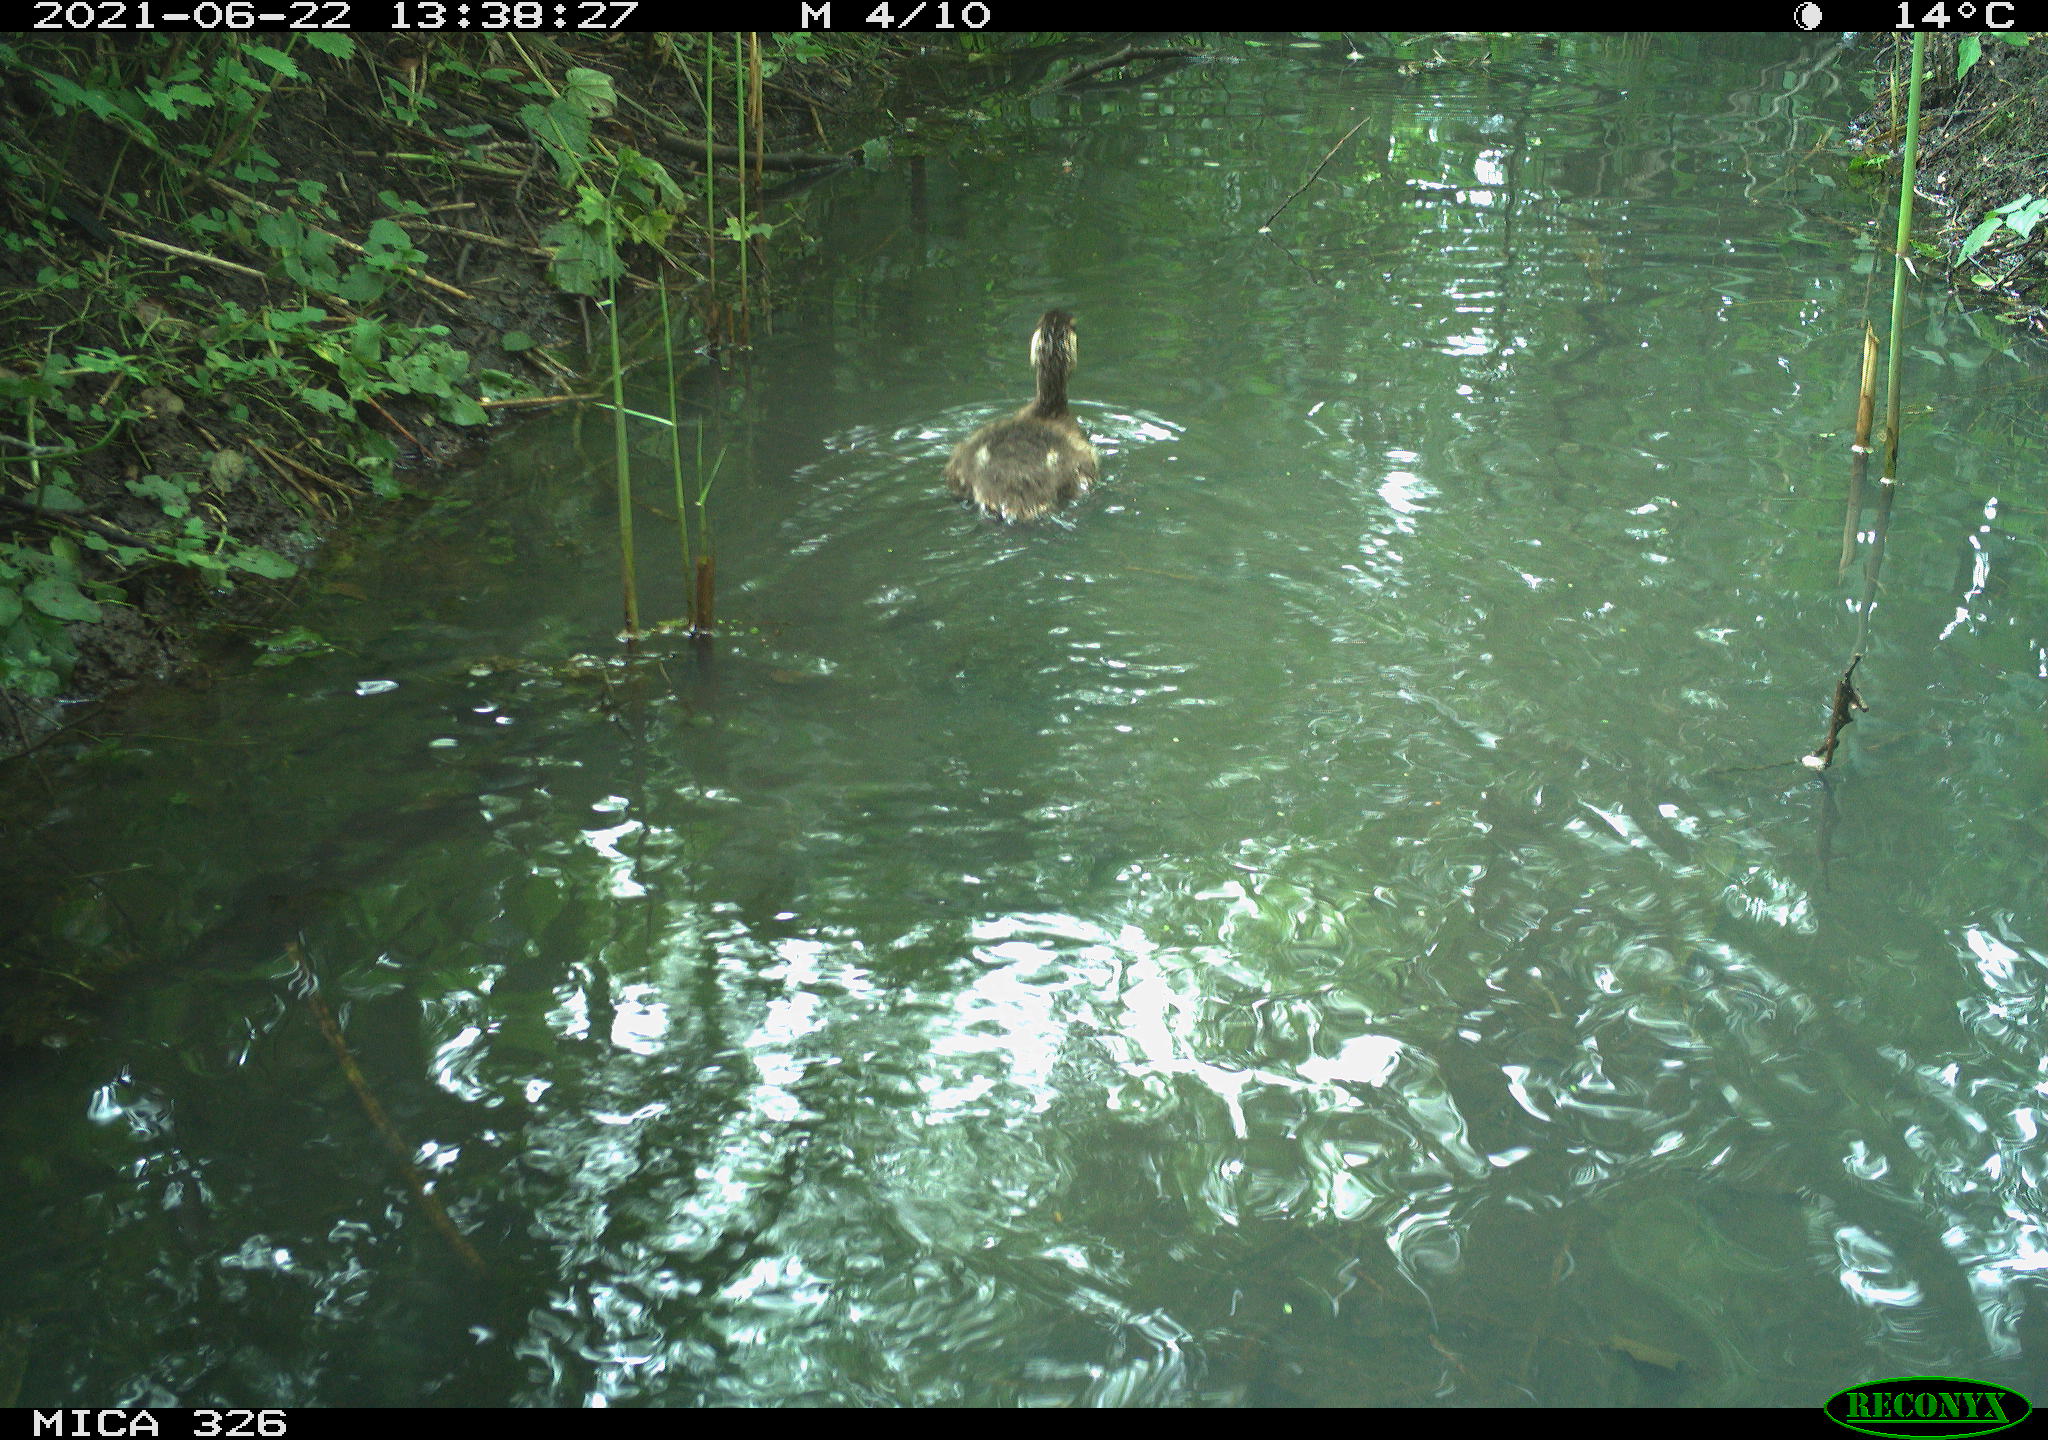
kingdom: Animalia
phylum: Chordata
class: Aves
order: Anseriformes
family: Anatidae
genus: Anas
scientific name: Anas platyrhynchos
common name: Mallard
